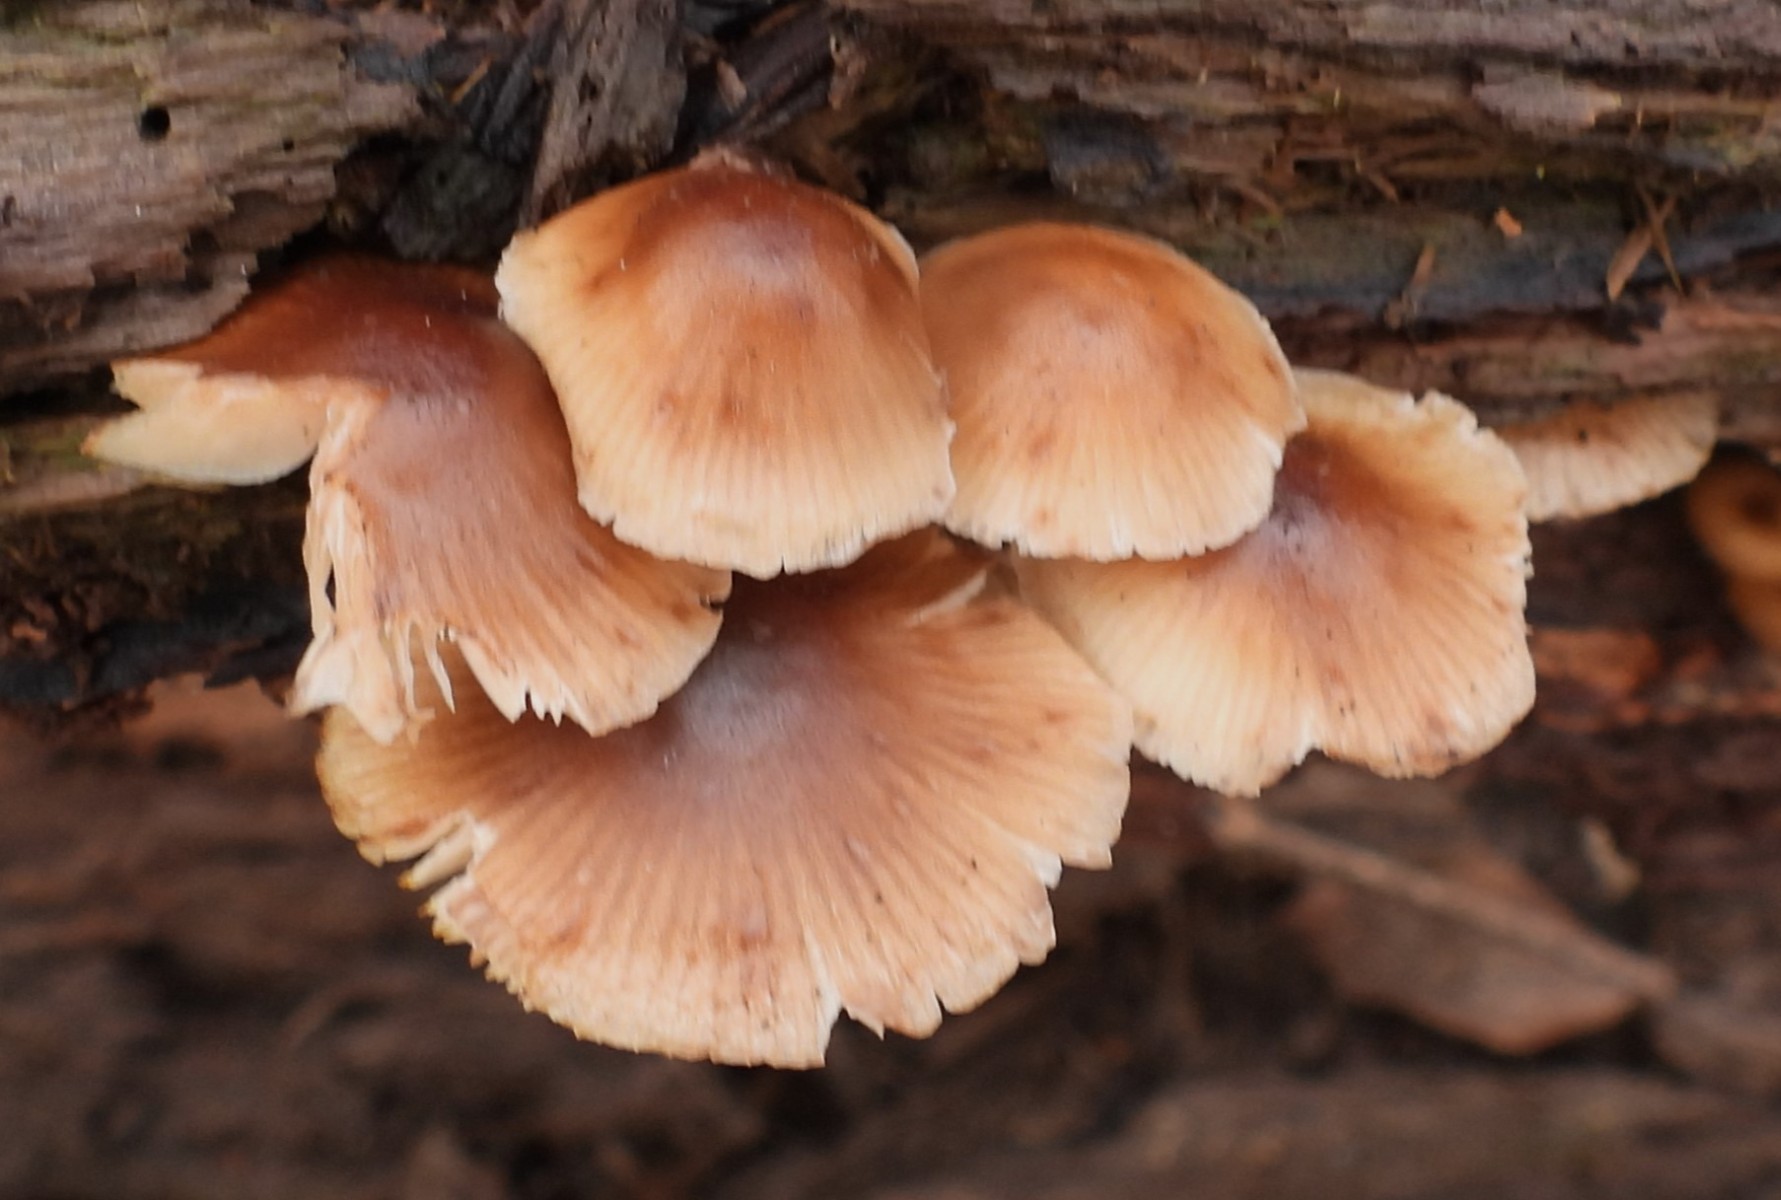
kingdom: Fungi
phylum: Basidiomycota
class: Agaricomycetes
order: Agaricales
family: Mycenaceae
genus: Mycena
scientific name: Mycena tintinnabulum
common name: vinter-huesvamp
